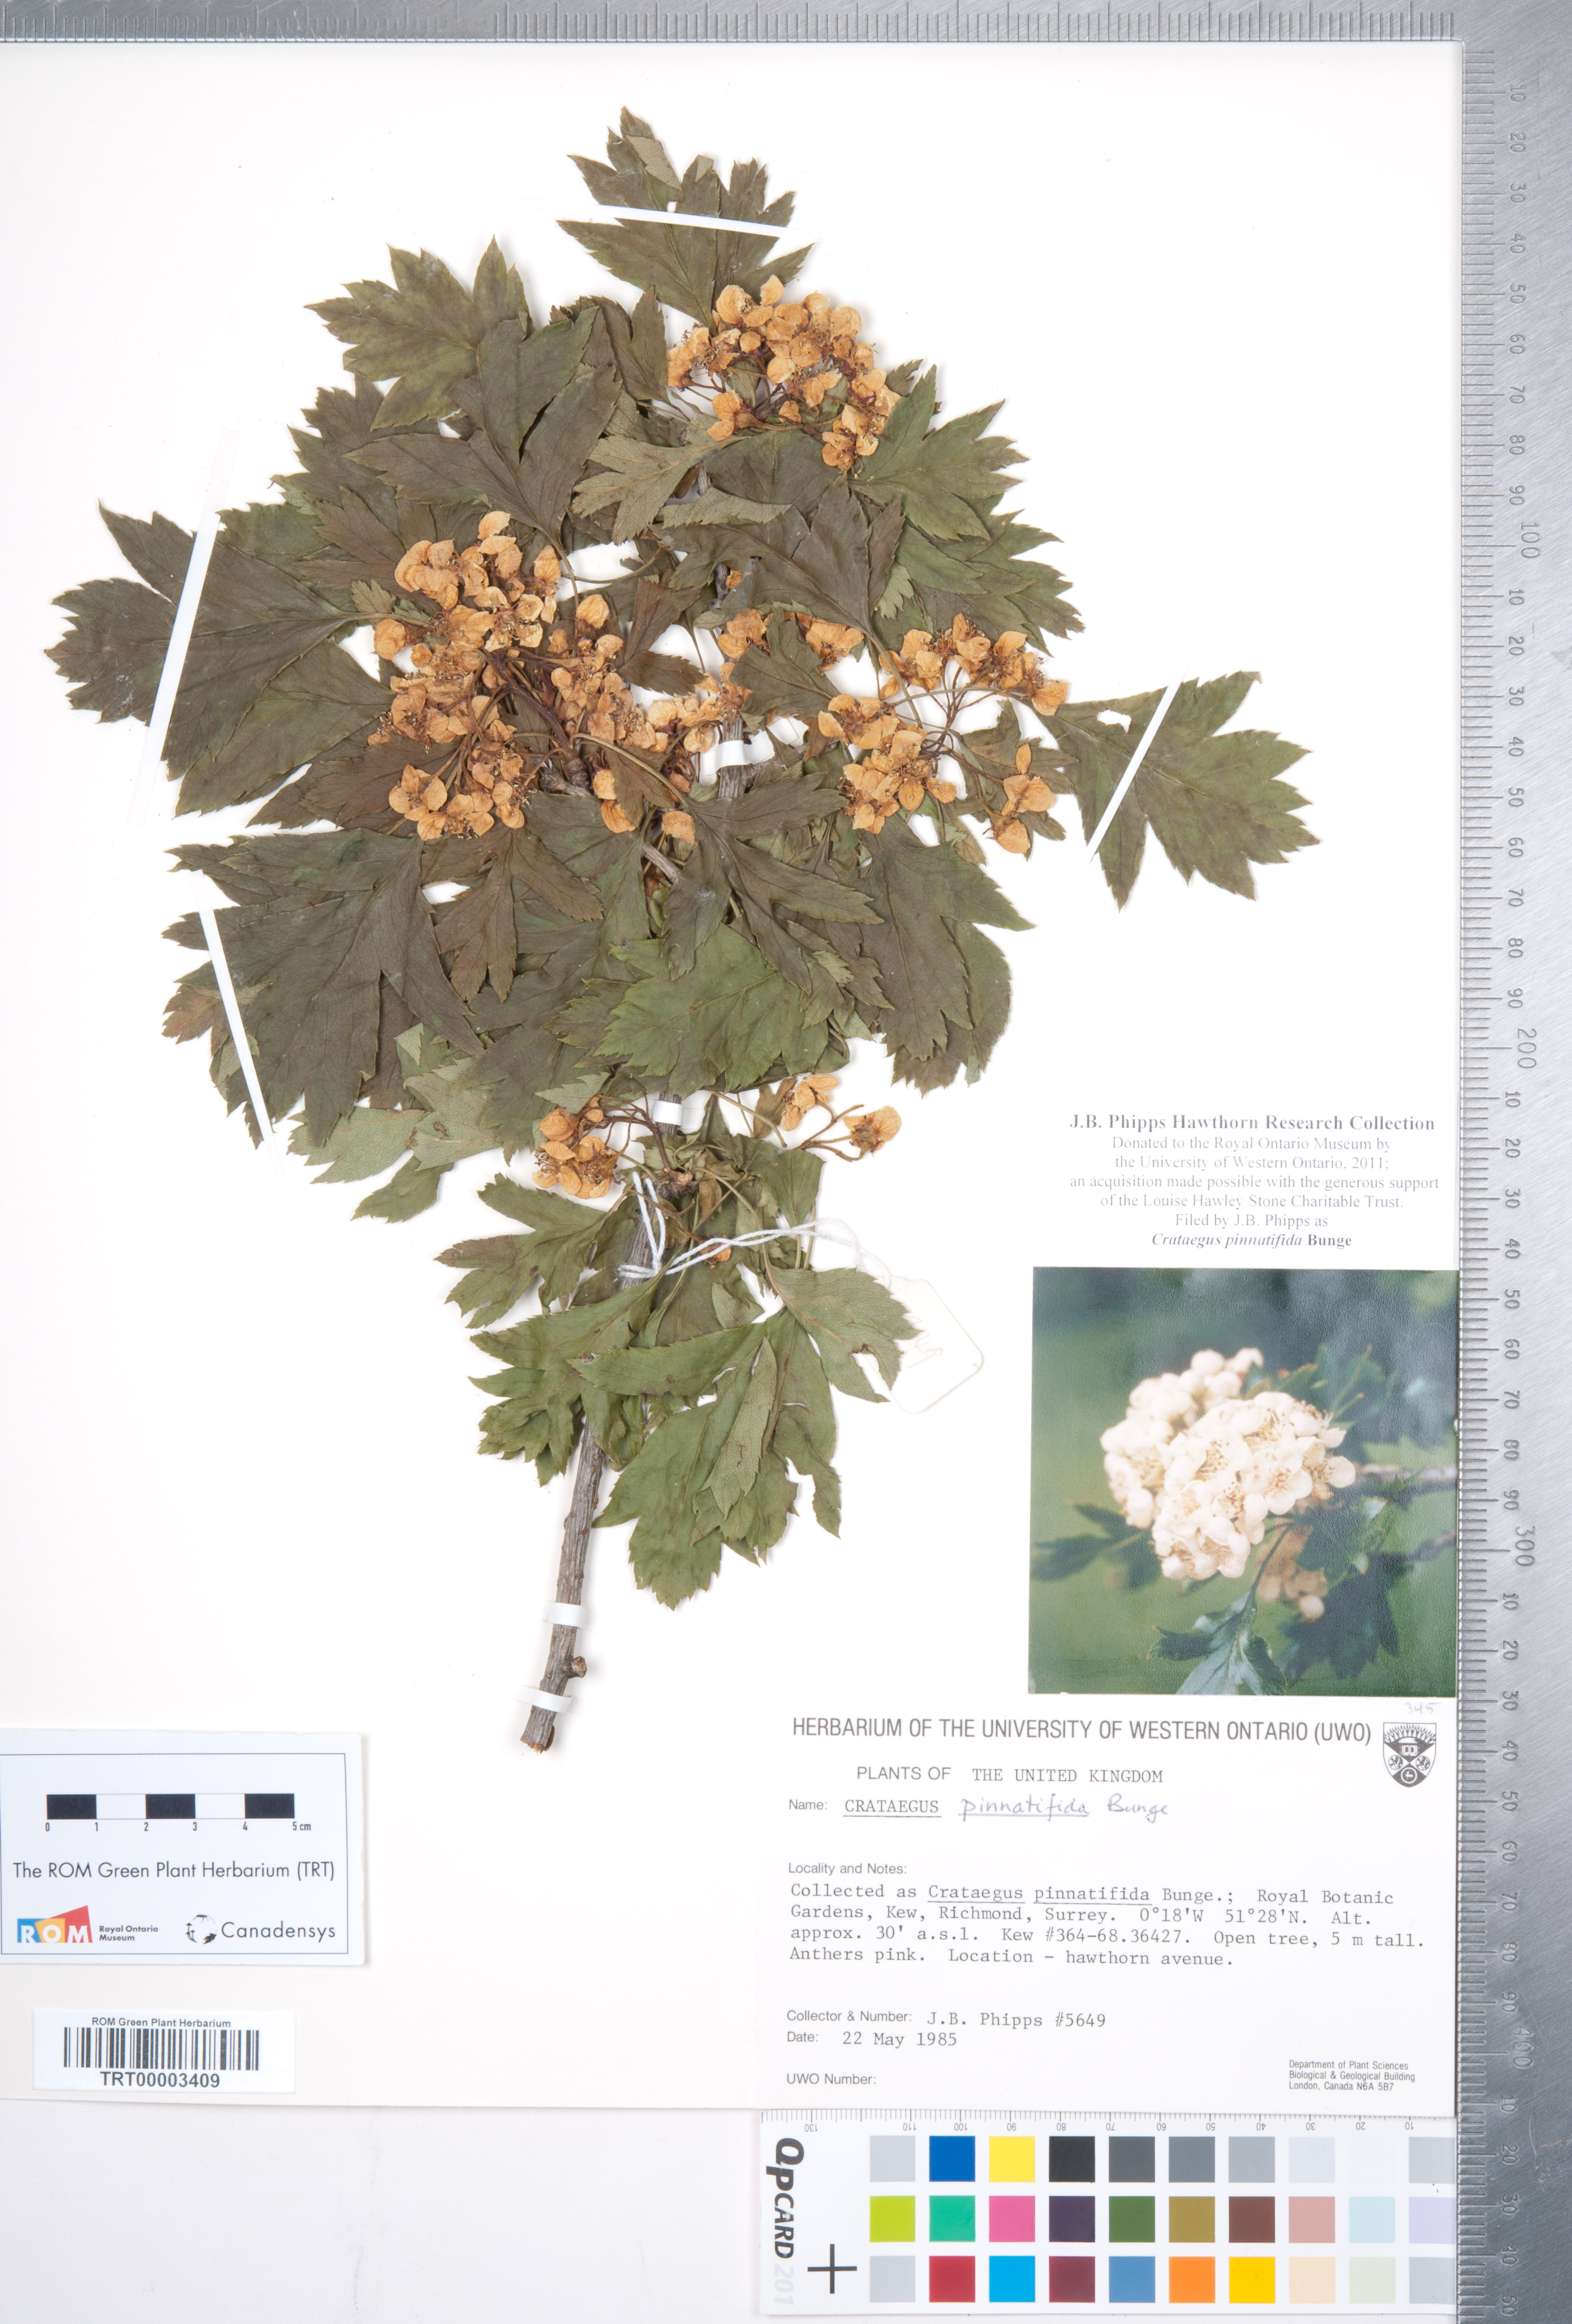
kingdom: Plantae
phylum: Tracheophyta
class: Magnoliopsida
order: Rosales
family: Rosaceae
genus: Crataegus
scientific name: Crataegus pinnatifida
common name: Chinese haw
